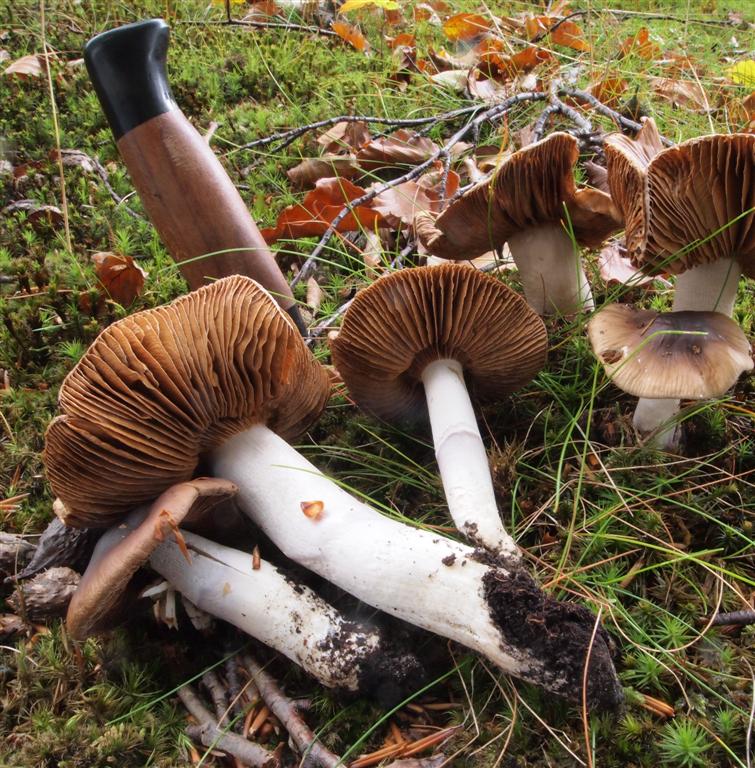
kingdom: Fungi
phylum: Basidiomycota
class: Agaricomycetes
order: Agaricales
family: Cortinariaceae
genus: Cortinarius
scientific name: Cortinarius elatior
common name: høj slørhat
